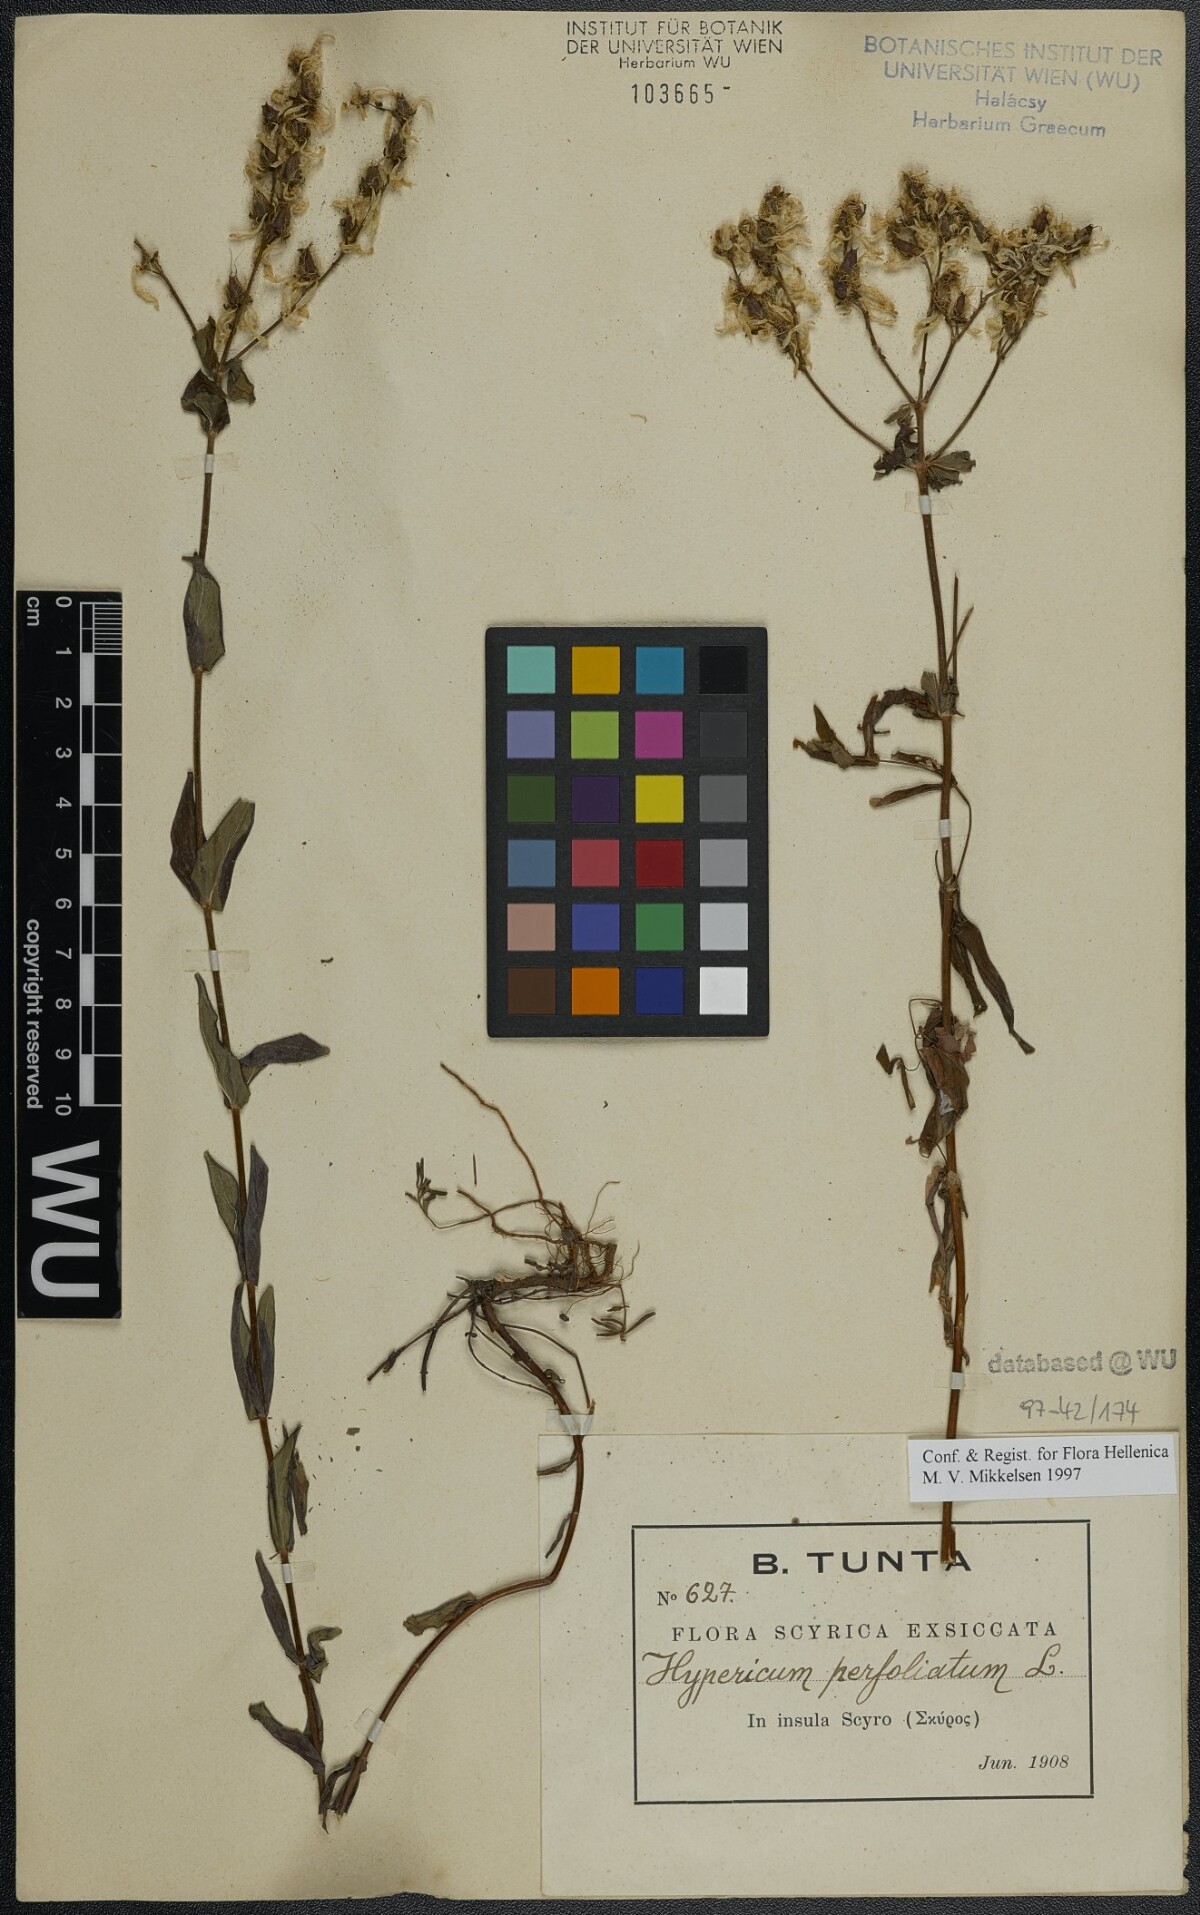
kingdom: Plantae
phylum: Tracheophyta
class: Magnoliopsida
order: Malpighiales
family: Hypericaceae
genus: Hypericum
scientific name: Hypericum perfoliatum
